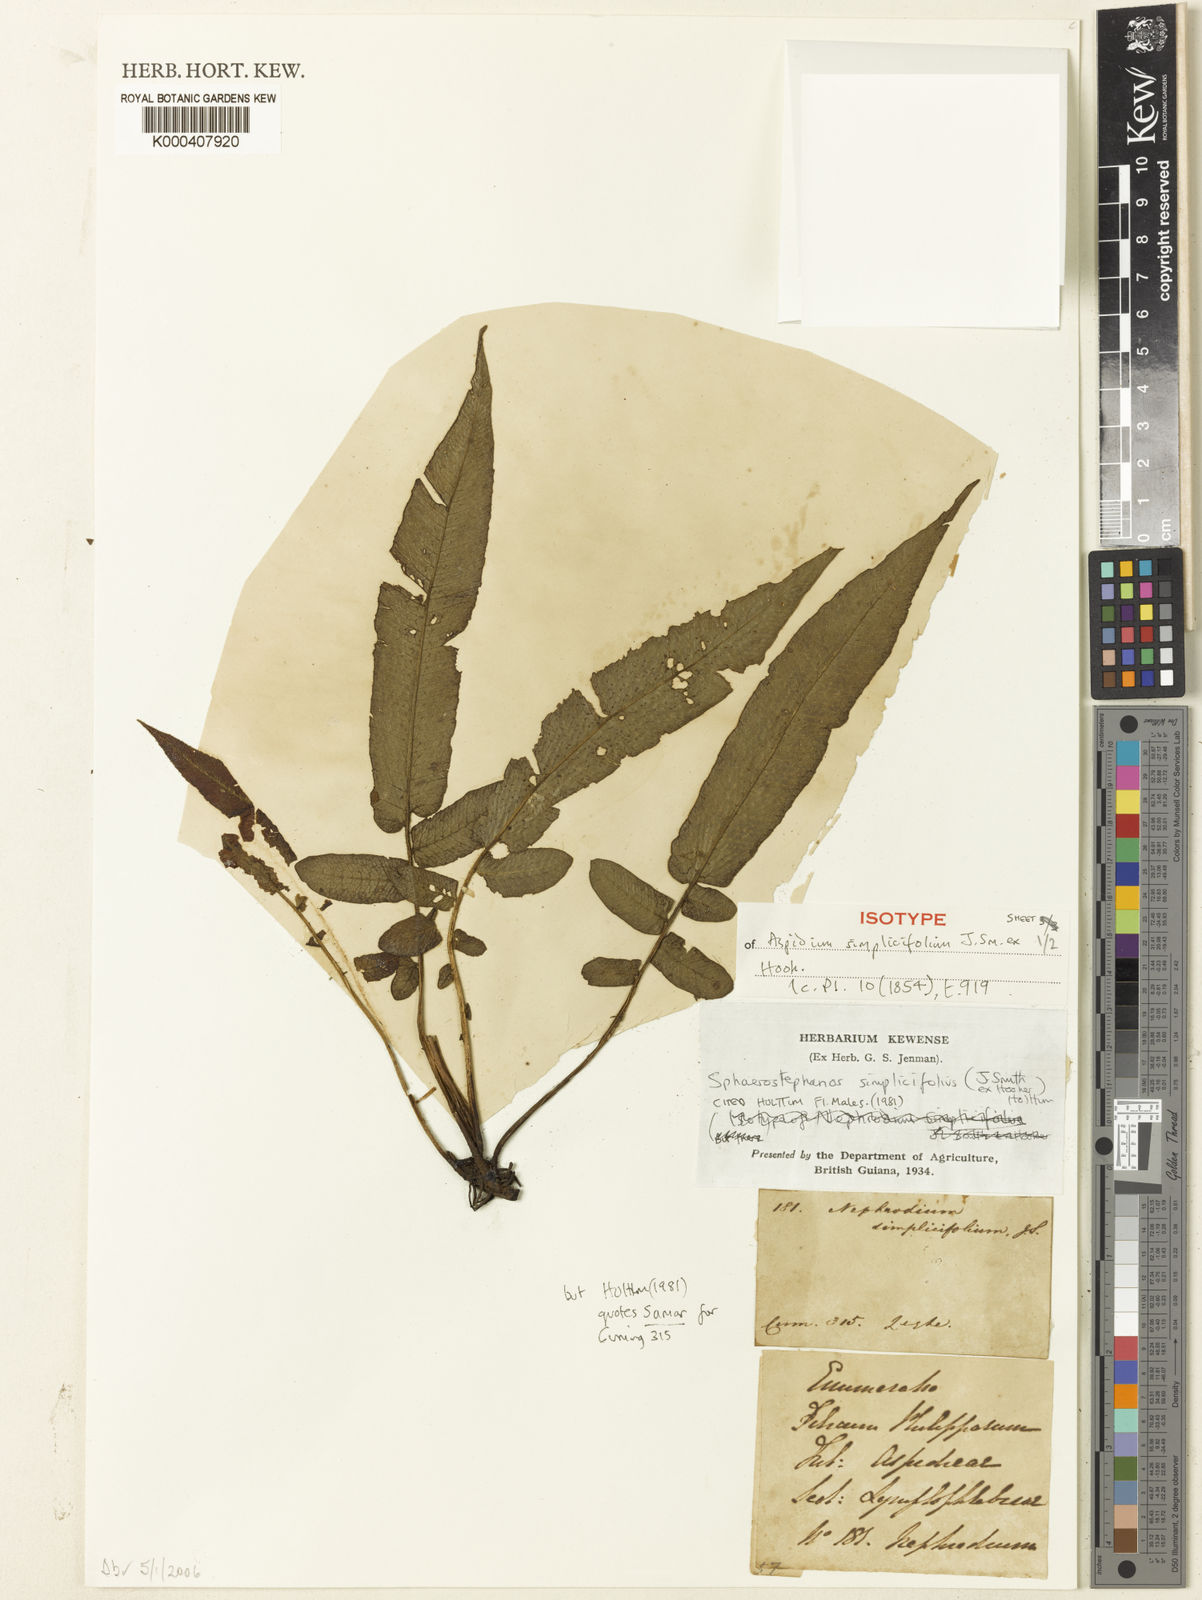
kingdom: Plantae
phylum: Tracheophyta
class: Polypodiopsida
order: Polypodiales
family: Thelypteridaceae
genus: Sphaerostephanos
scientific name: Sphaerostephanos simplicifolius
